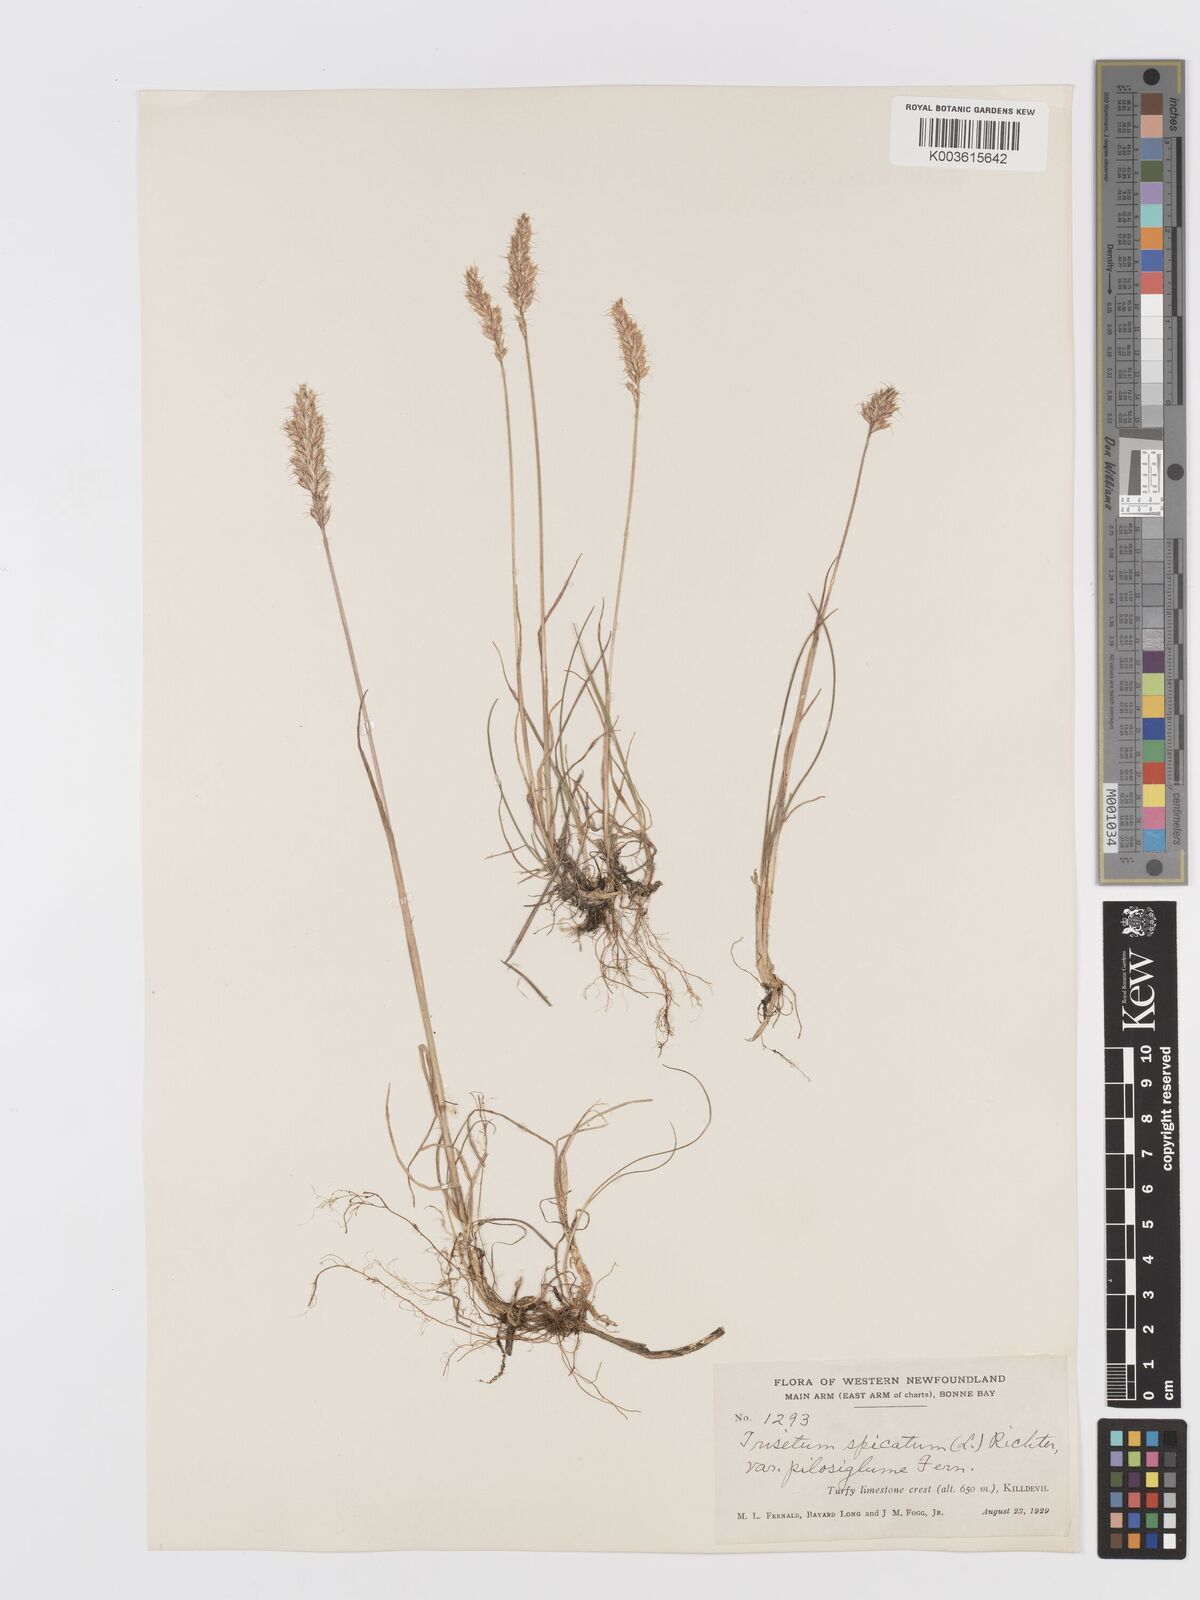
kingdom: Plantae
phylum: Tracheophyta
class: Liliopsida
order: Poales
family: Poaceae
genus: Koeleria
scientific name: Koeleria spicata
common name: Mountain trisetum
